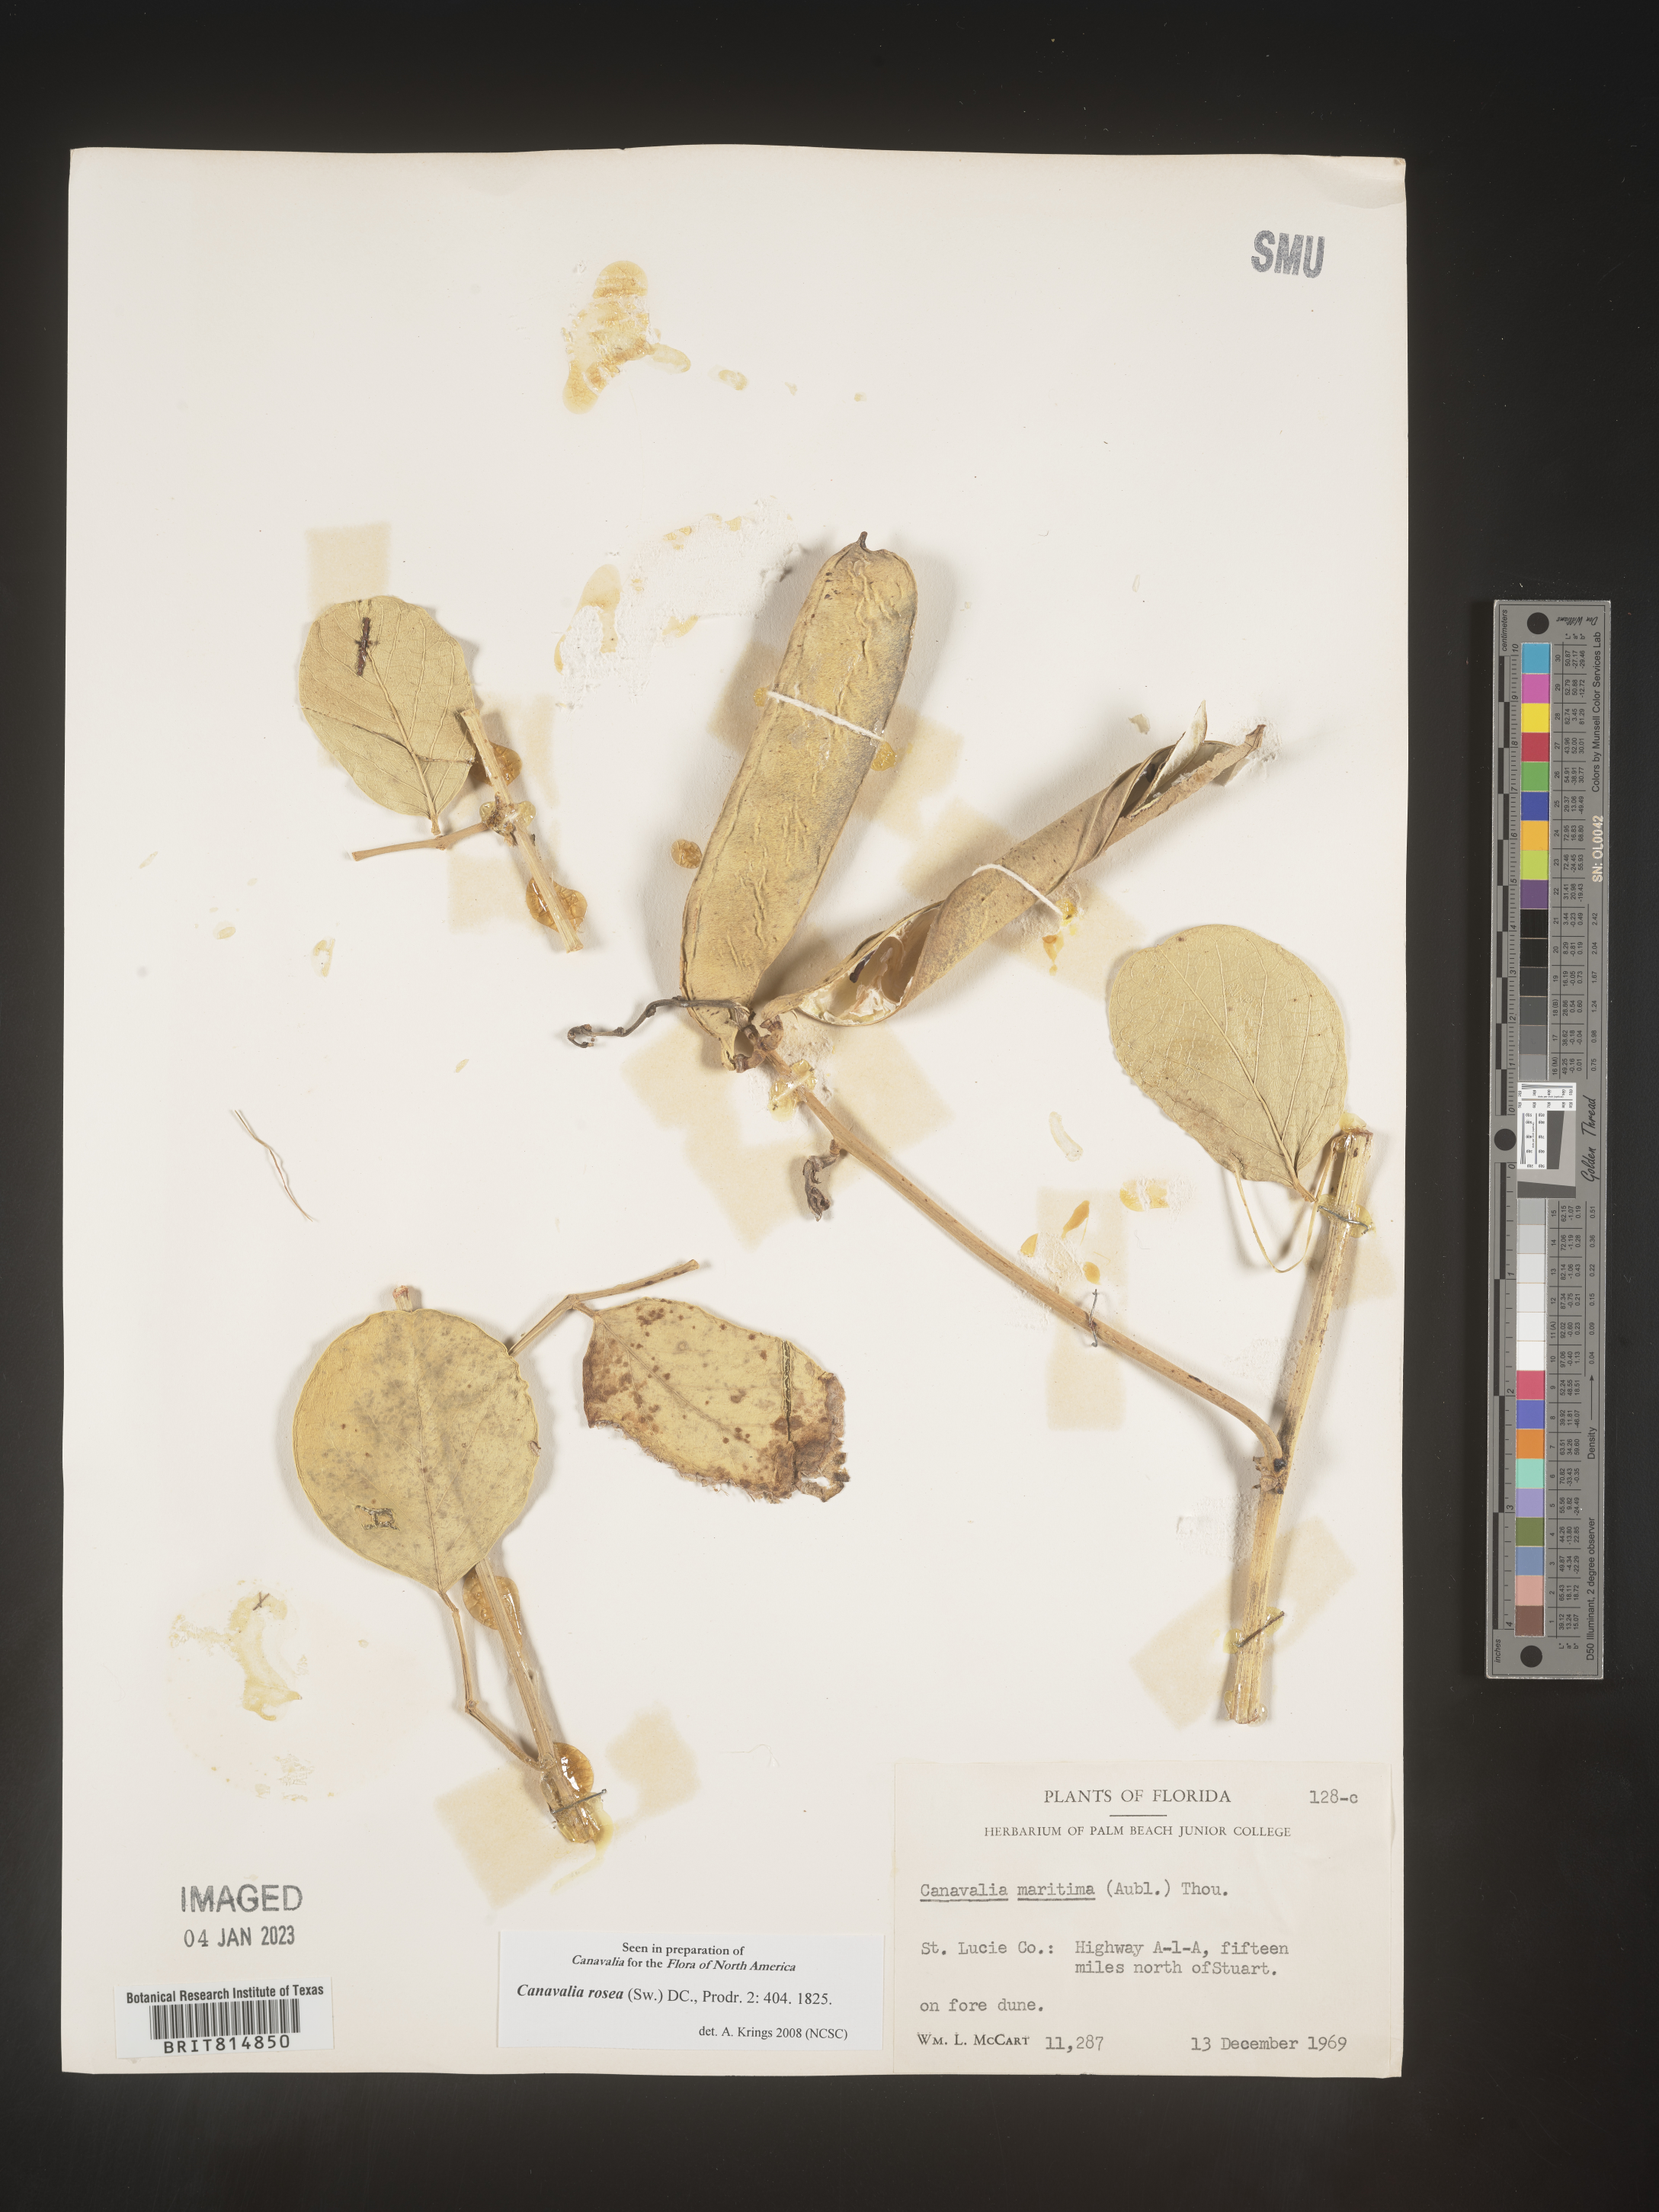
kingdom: Plantae
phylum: Tracheophyta
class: Magnoliopsida
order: Fabales
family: Fabaceae
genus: Canavalia
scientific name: Canavalia
